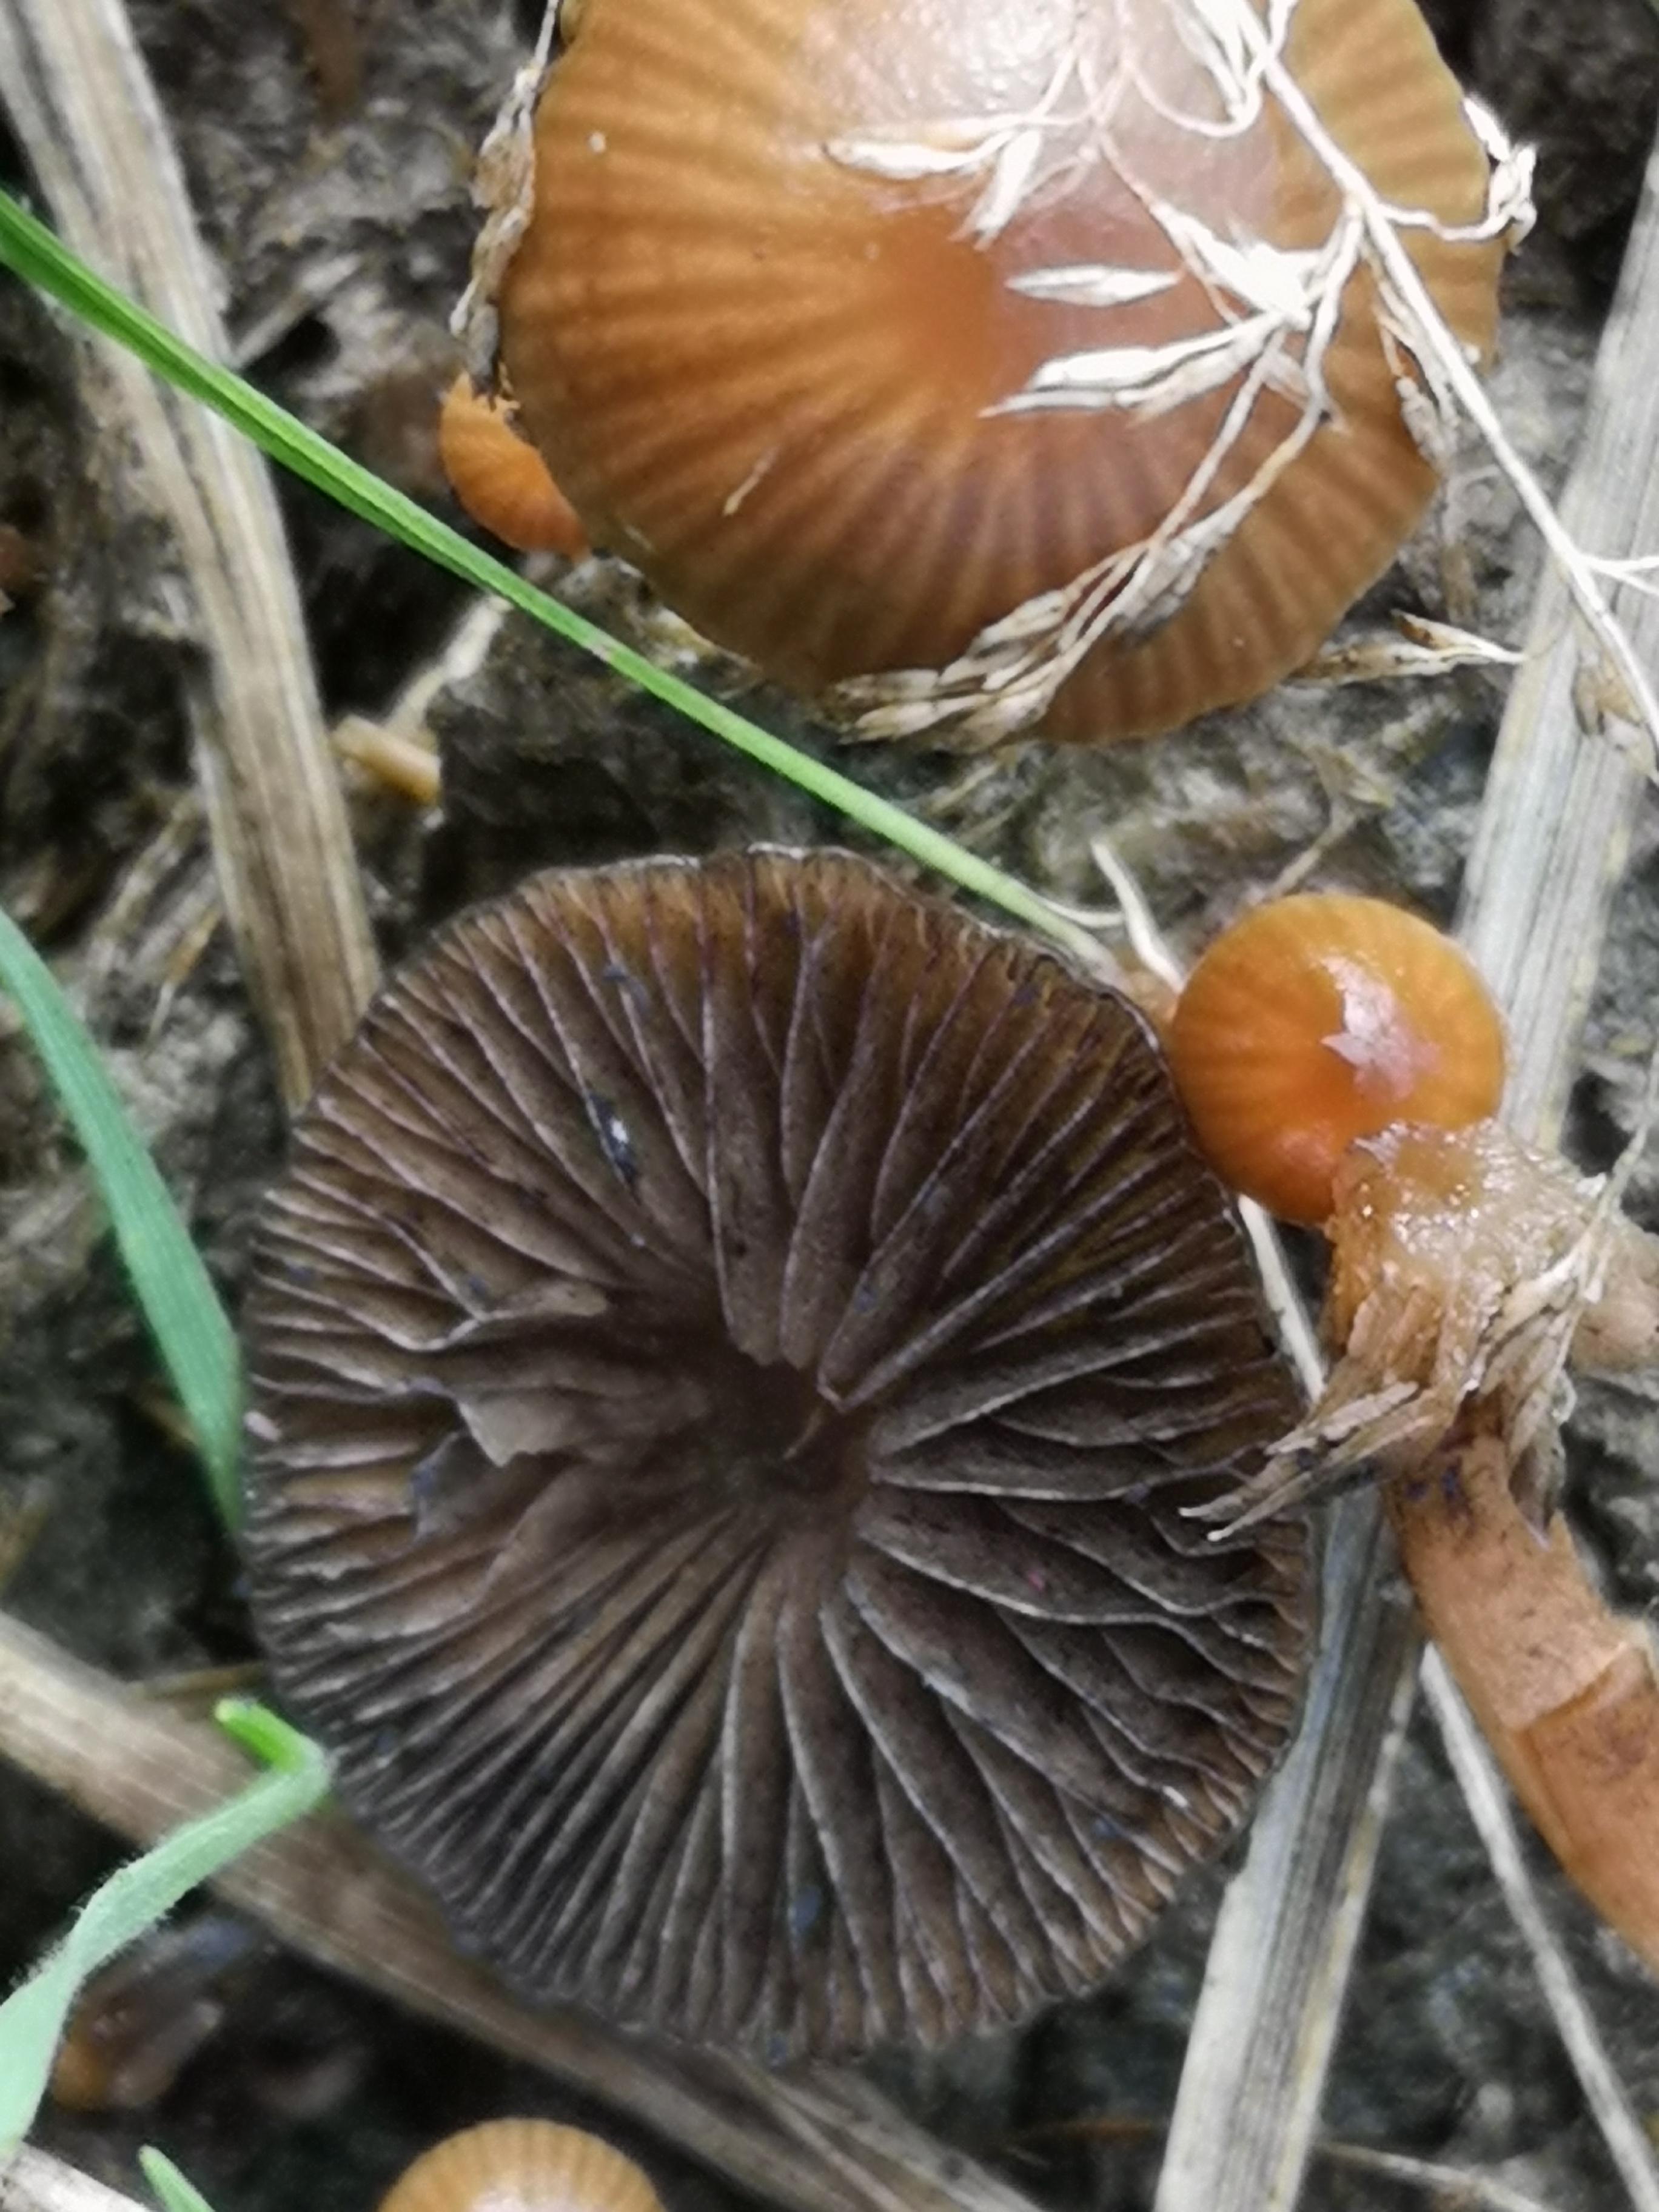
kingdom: Fungi
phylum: Basidiomycota
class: Agaricomycetes
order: Agaricales
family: Strophariaceae
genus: Deconica
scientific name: Deconica
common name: stråhat
